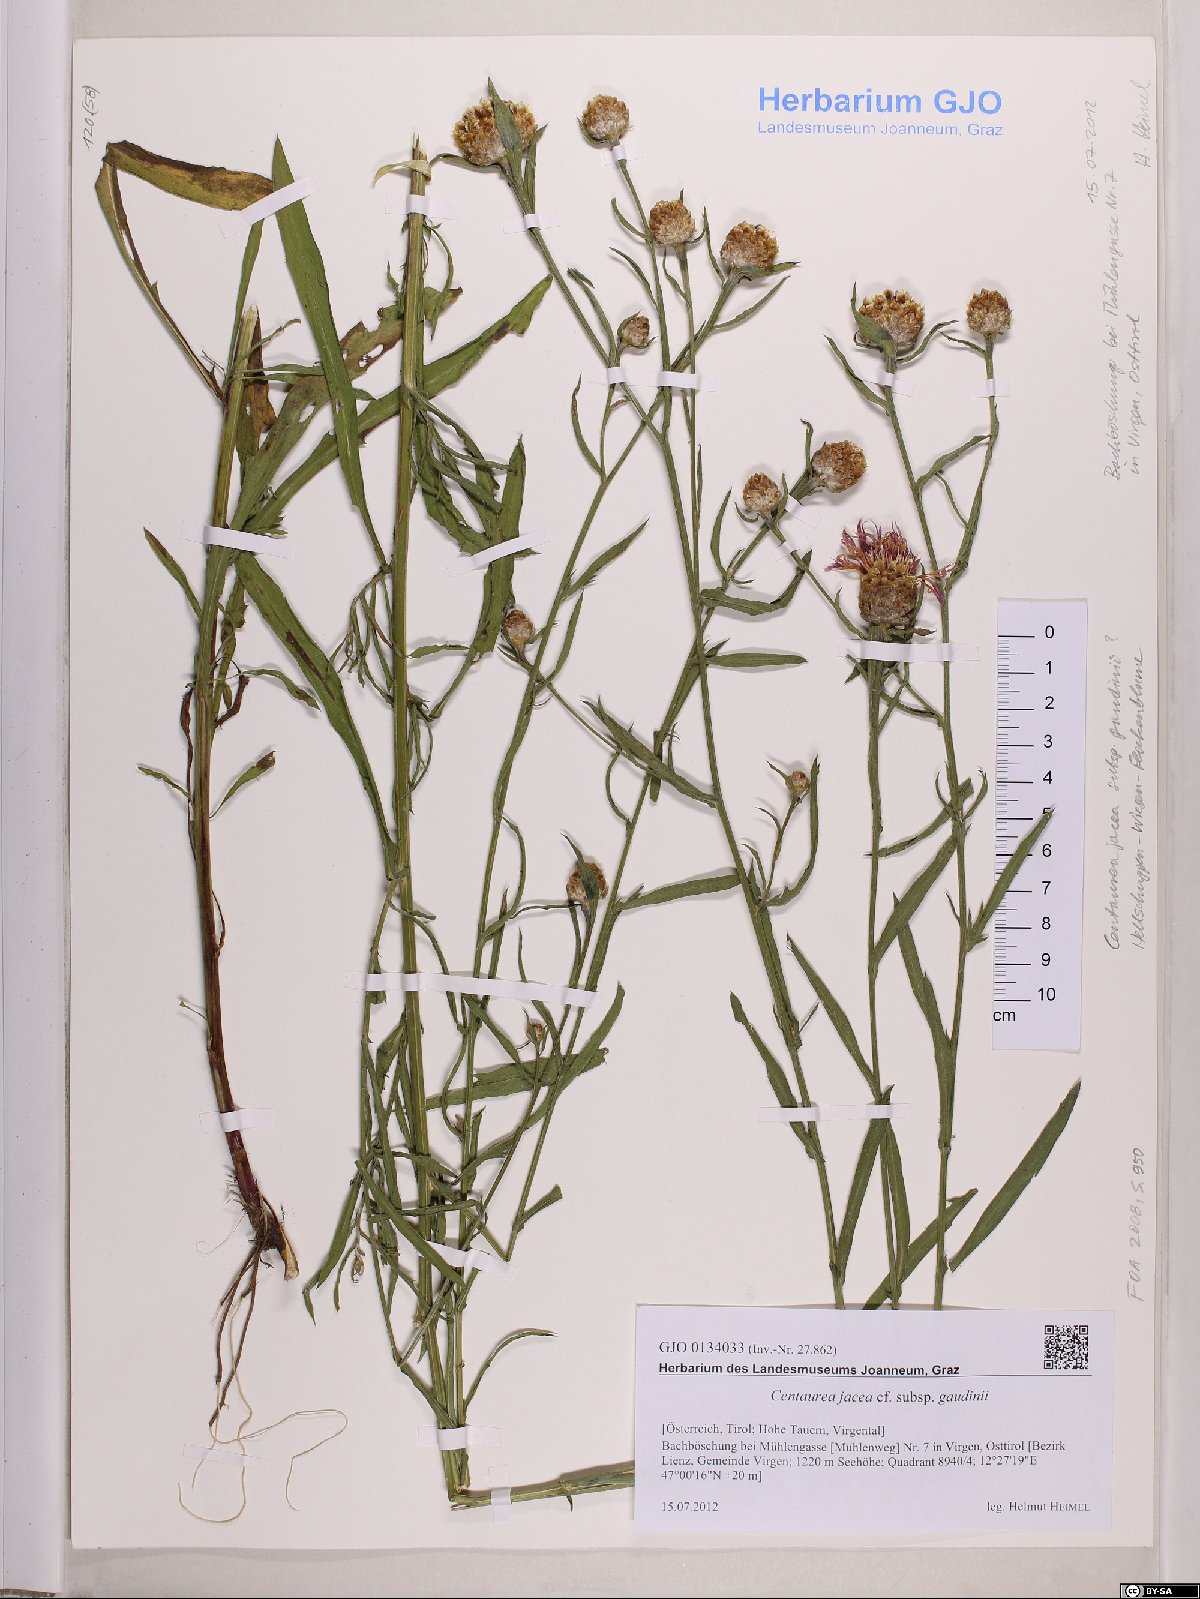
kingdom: Plantae
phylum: Tracheophyta
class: Magnoliopsida
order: Asterales
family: Asteraceae
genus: Centaurea
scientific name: Centaurea jacea
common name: Brown knapweed
